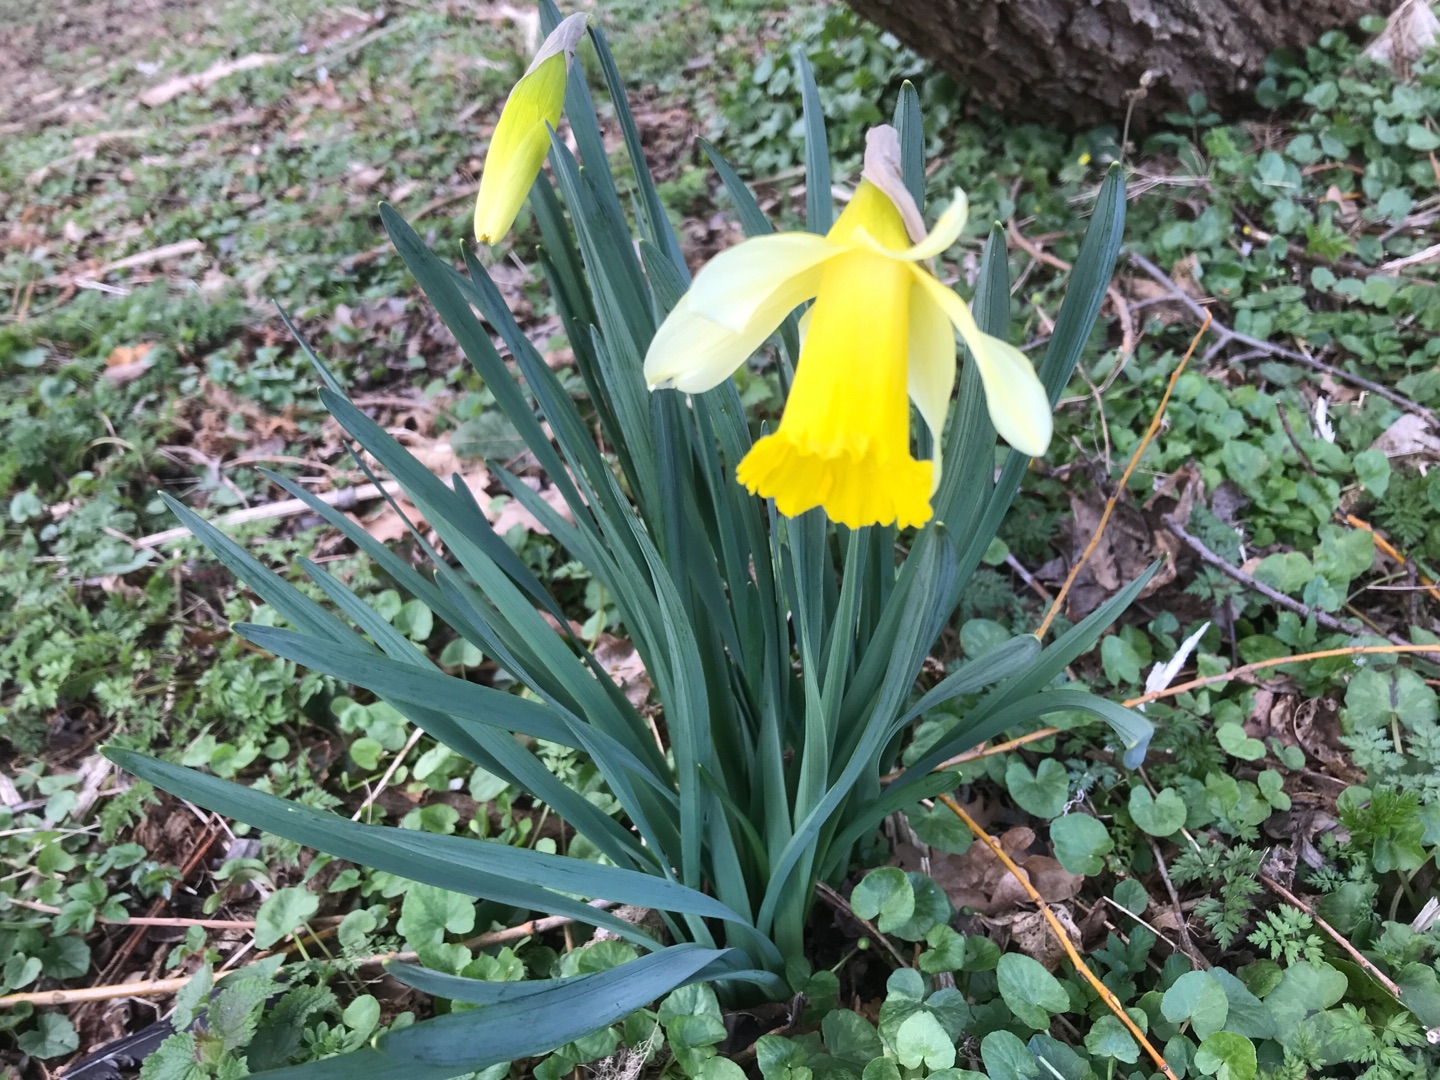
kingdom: Plantae
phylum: Tracheophyta
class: Liliopsida
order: Asparagales
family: Amaryllidaceae
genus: Narcissus
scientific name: Narcissus pseudonarcissus
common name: Påskelilje
